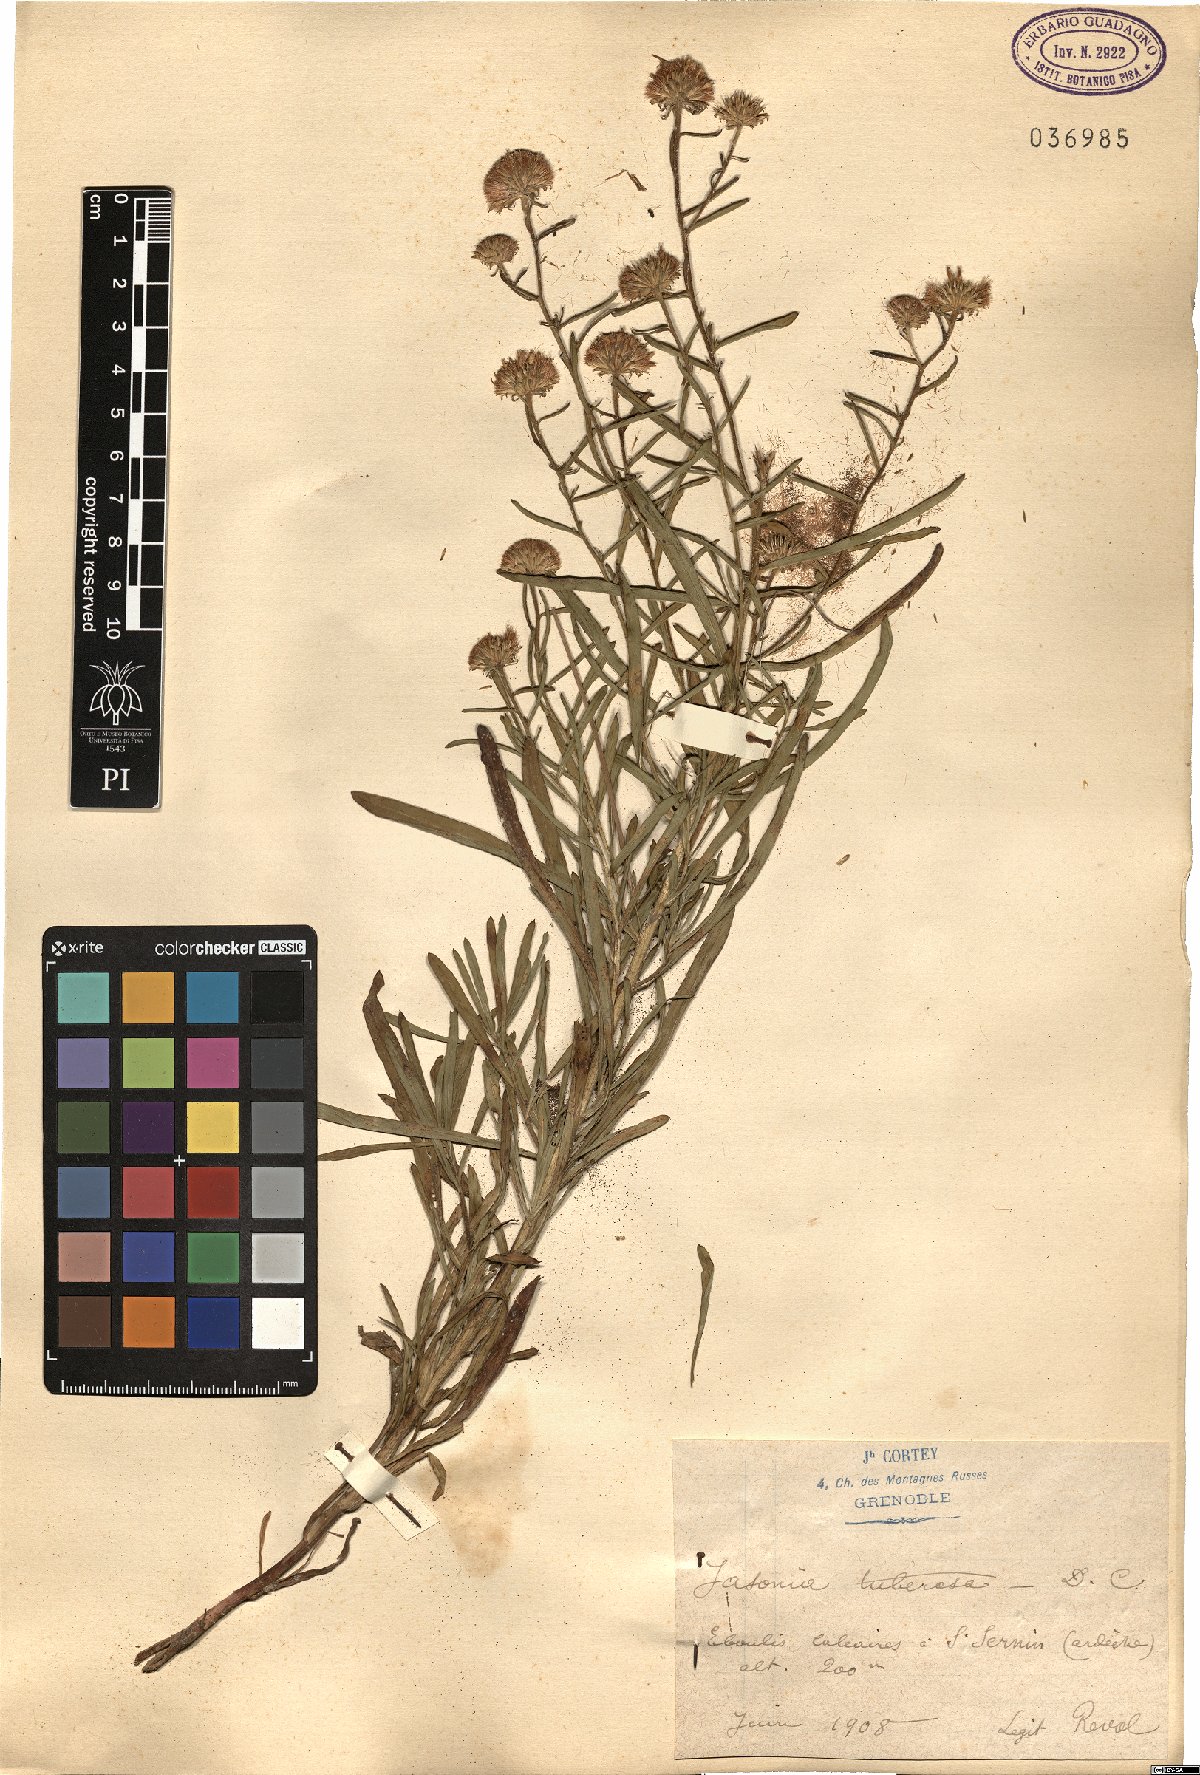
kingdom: Plantae
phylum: Tracheophyta
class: Magnoliopsida
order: Asterales
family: Asteraceae
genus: Jasonia
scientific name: Jasonia tuberosa
